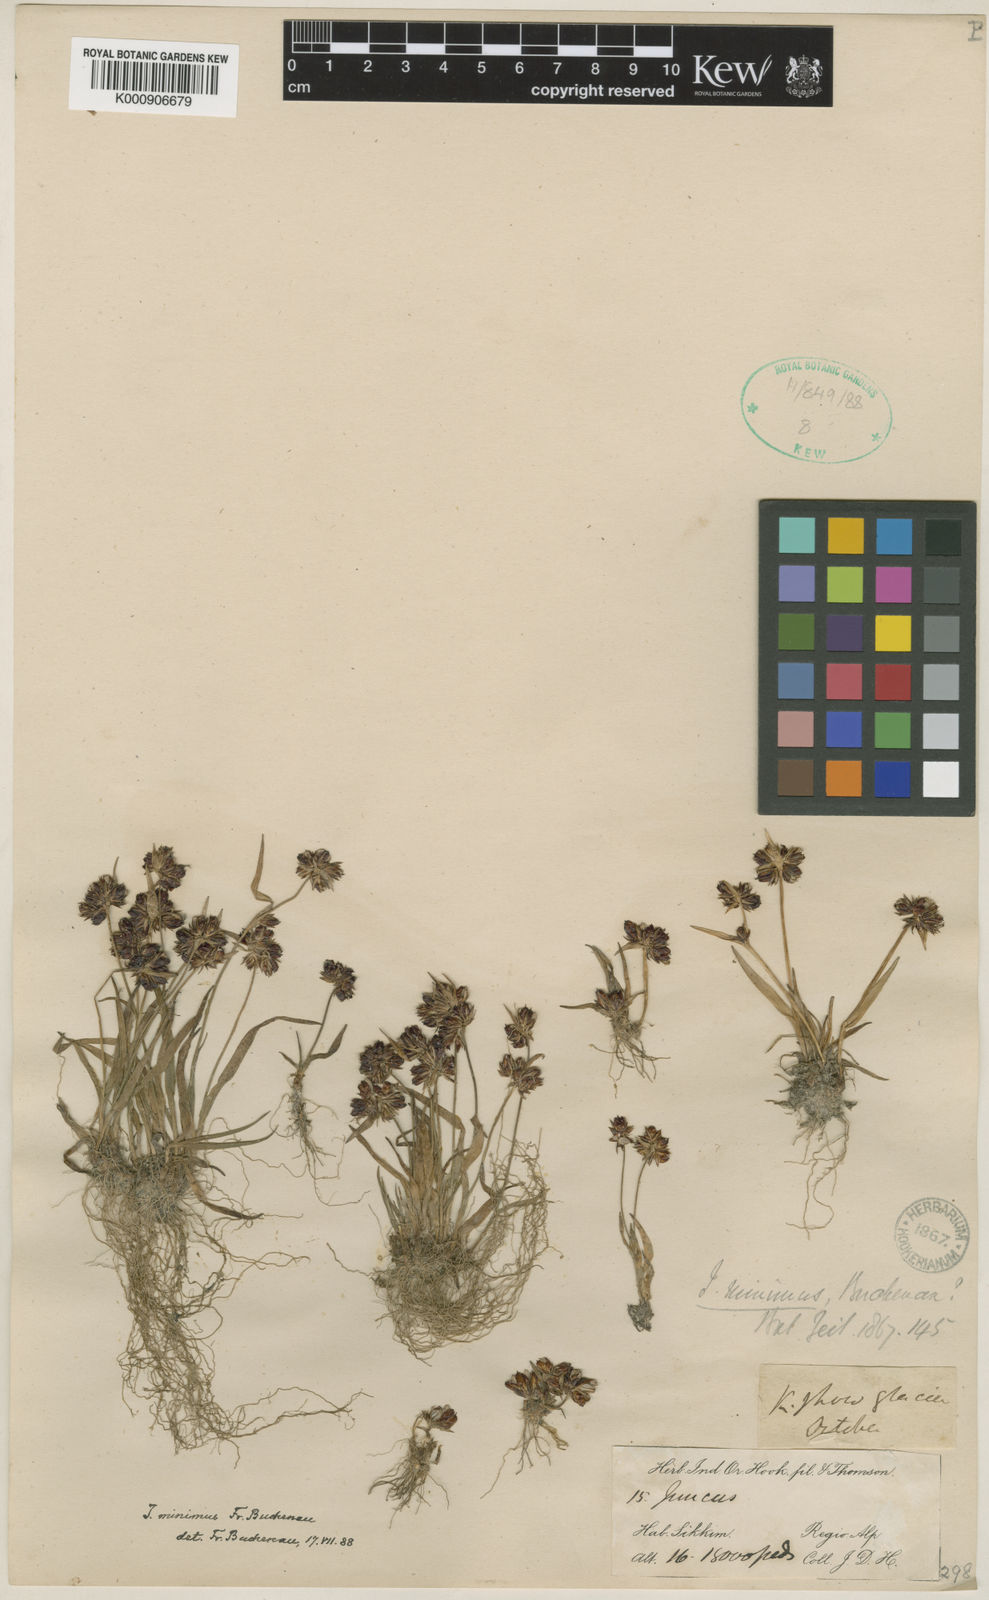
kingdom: Plantae
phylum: Tracheophyta
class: Liliopsida
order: Poales
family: Juncaceae
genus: Juncus
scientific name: Juncus minimus
